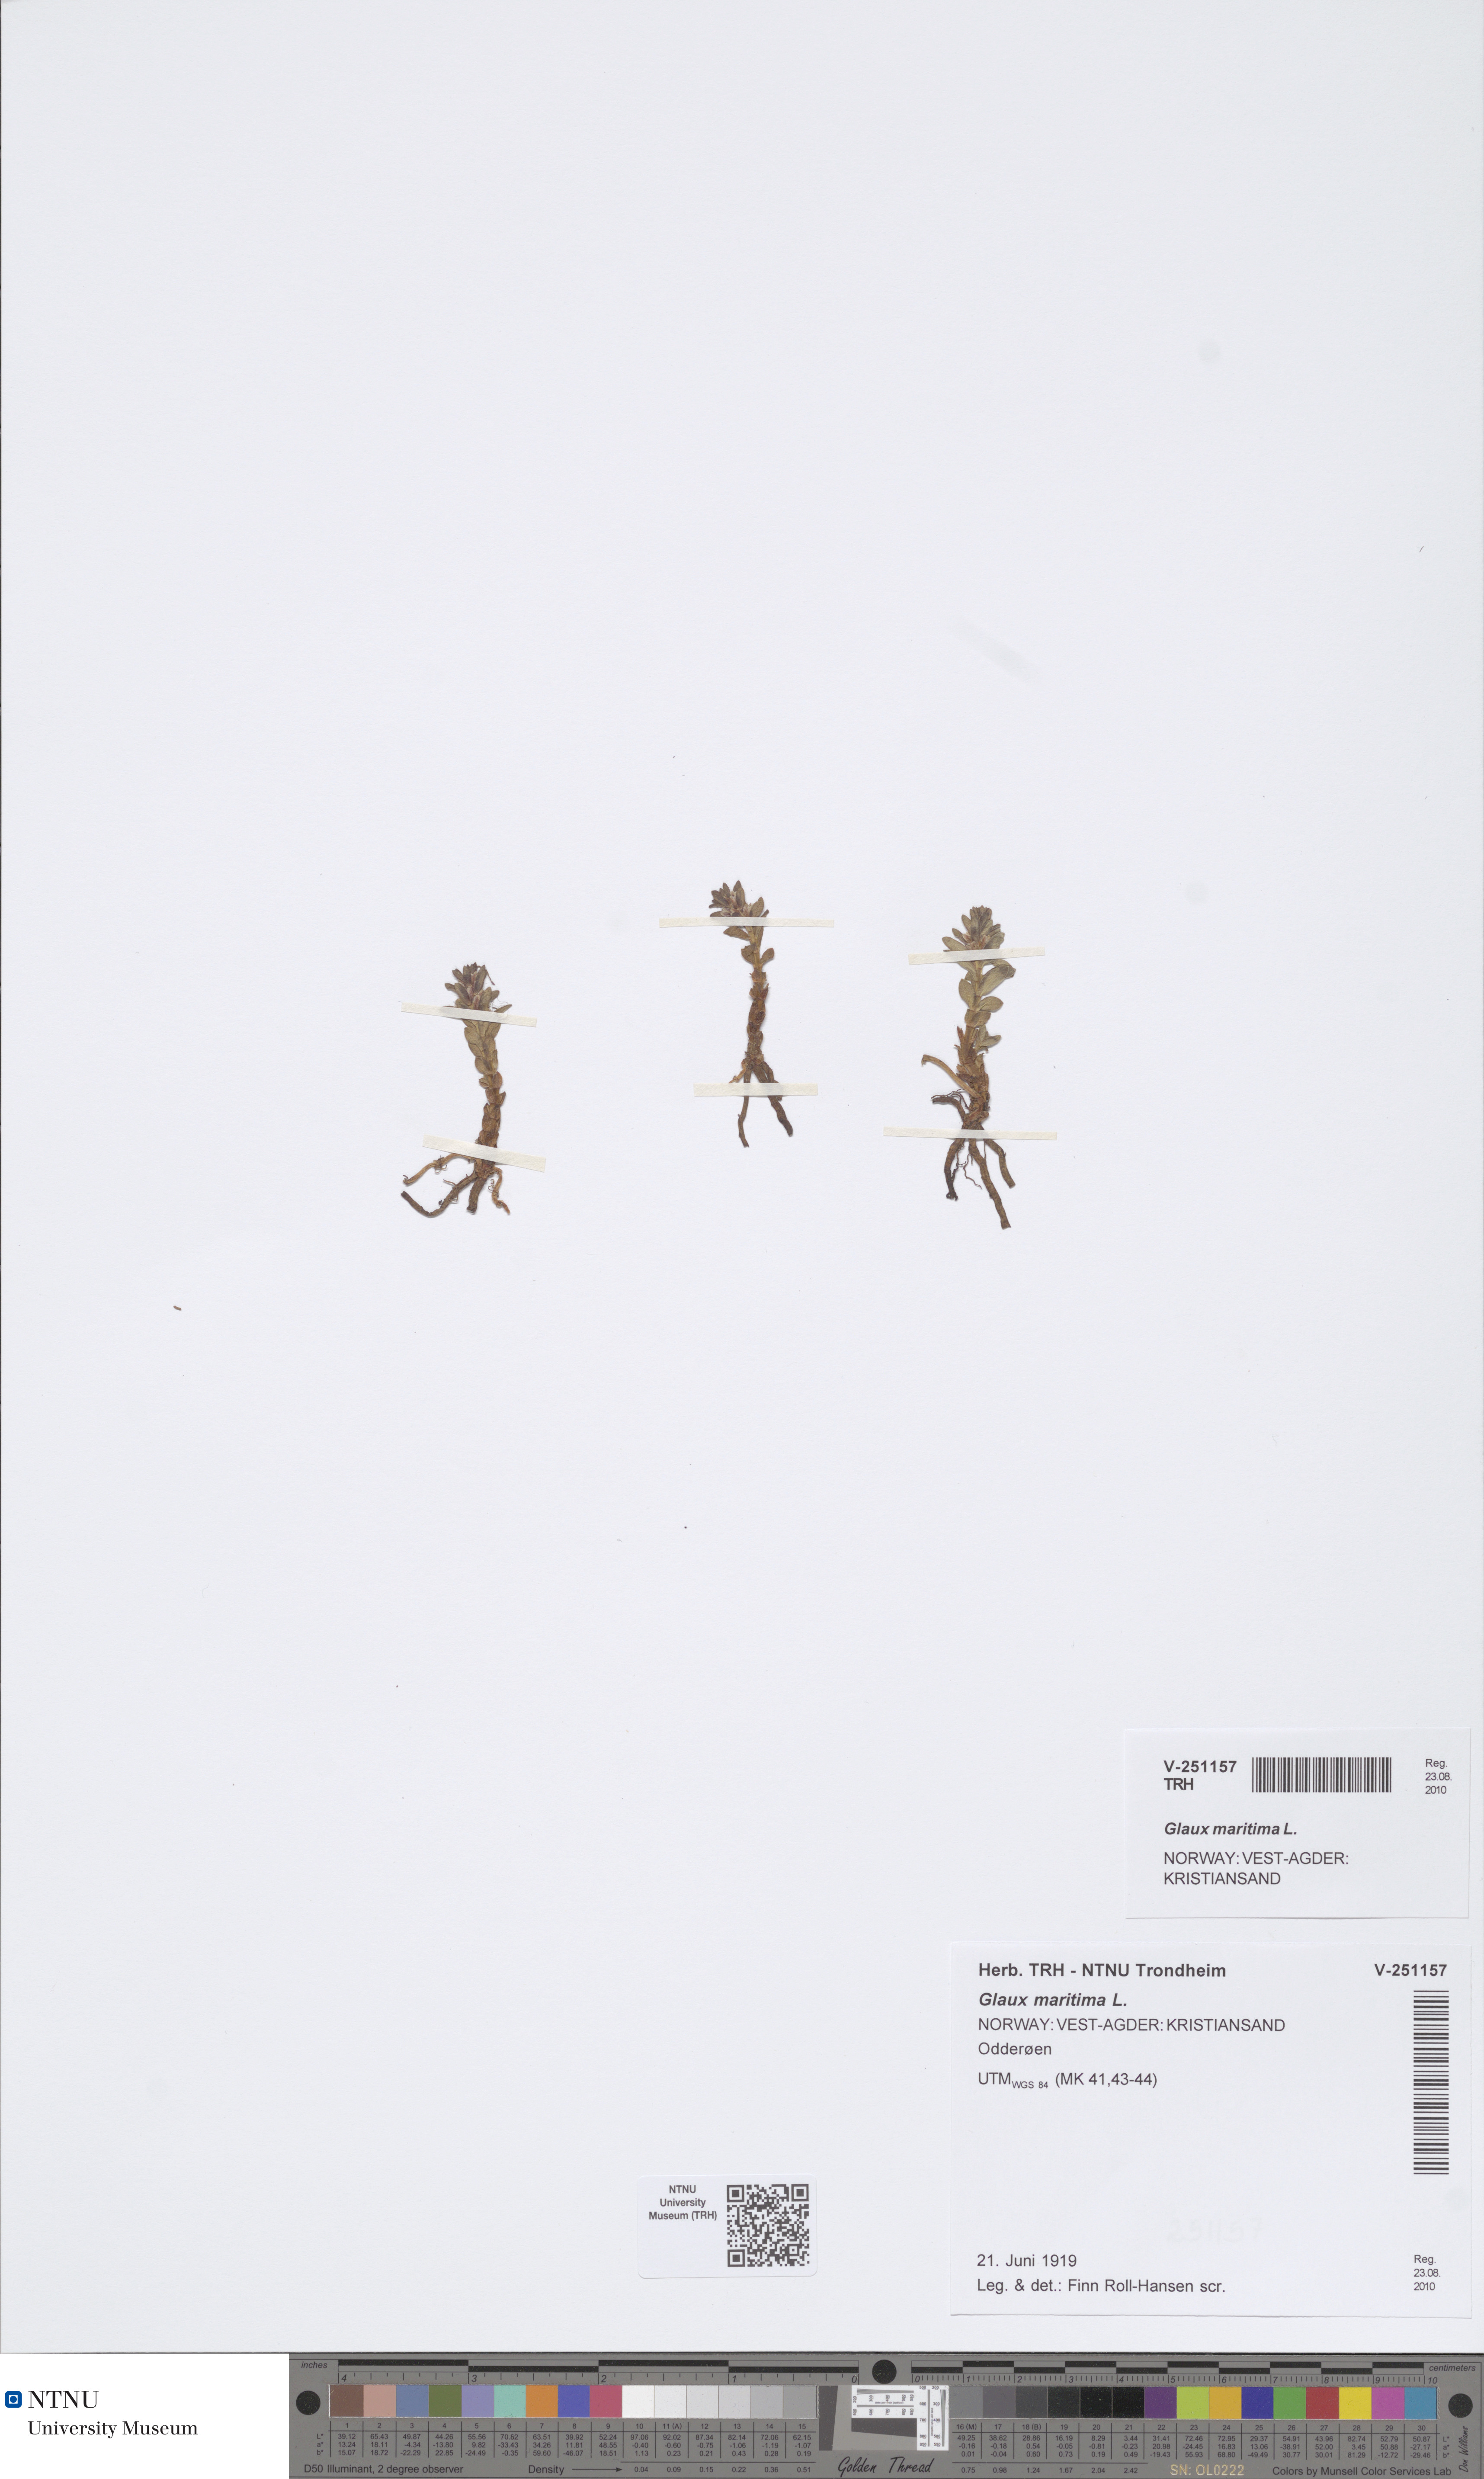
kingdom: Plantae
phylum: Tracheophyta
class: Magnoliopsida
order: Ericales
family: Primulaceae
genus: Lysimachia
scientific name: Lysimachia maritima
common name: Sea milkwort
